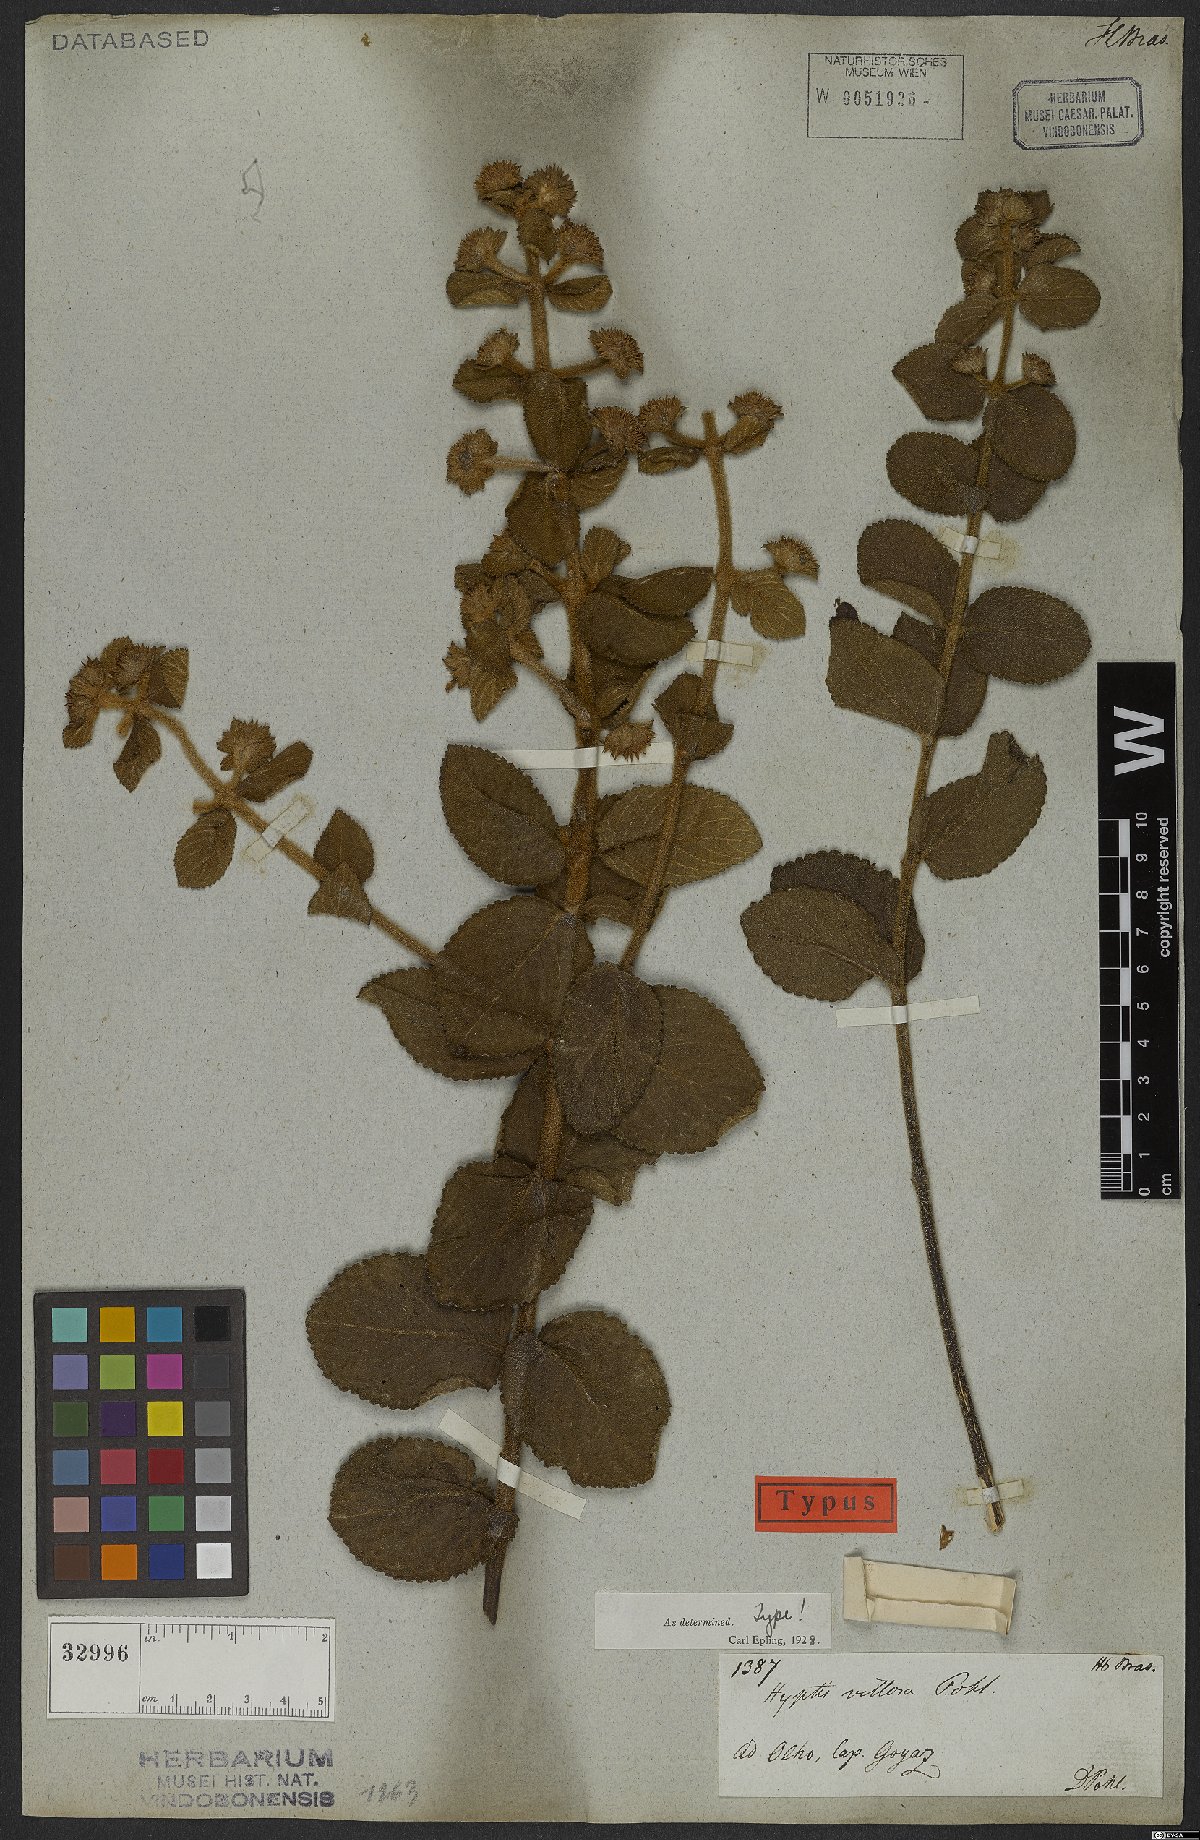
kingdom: Plantae
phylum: Tracheophyta
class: Magnoliopsida
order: Lamiales
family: Lamiaceae
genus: Hyptis
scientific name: Hyptis villosa
